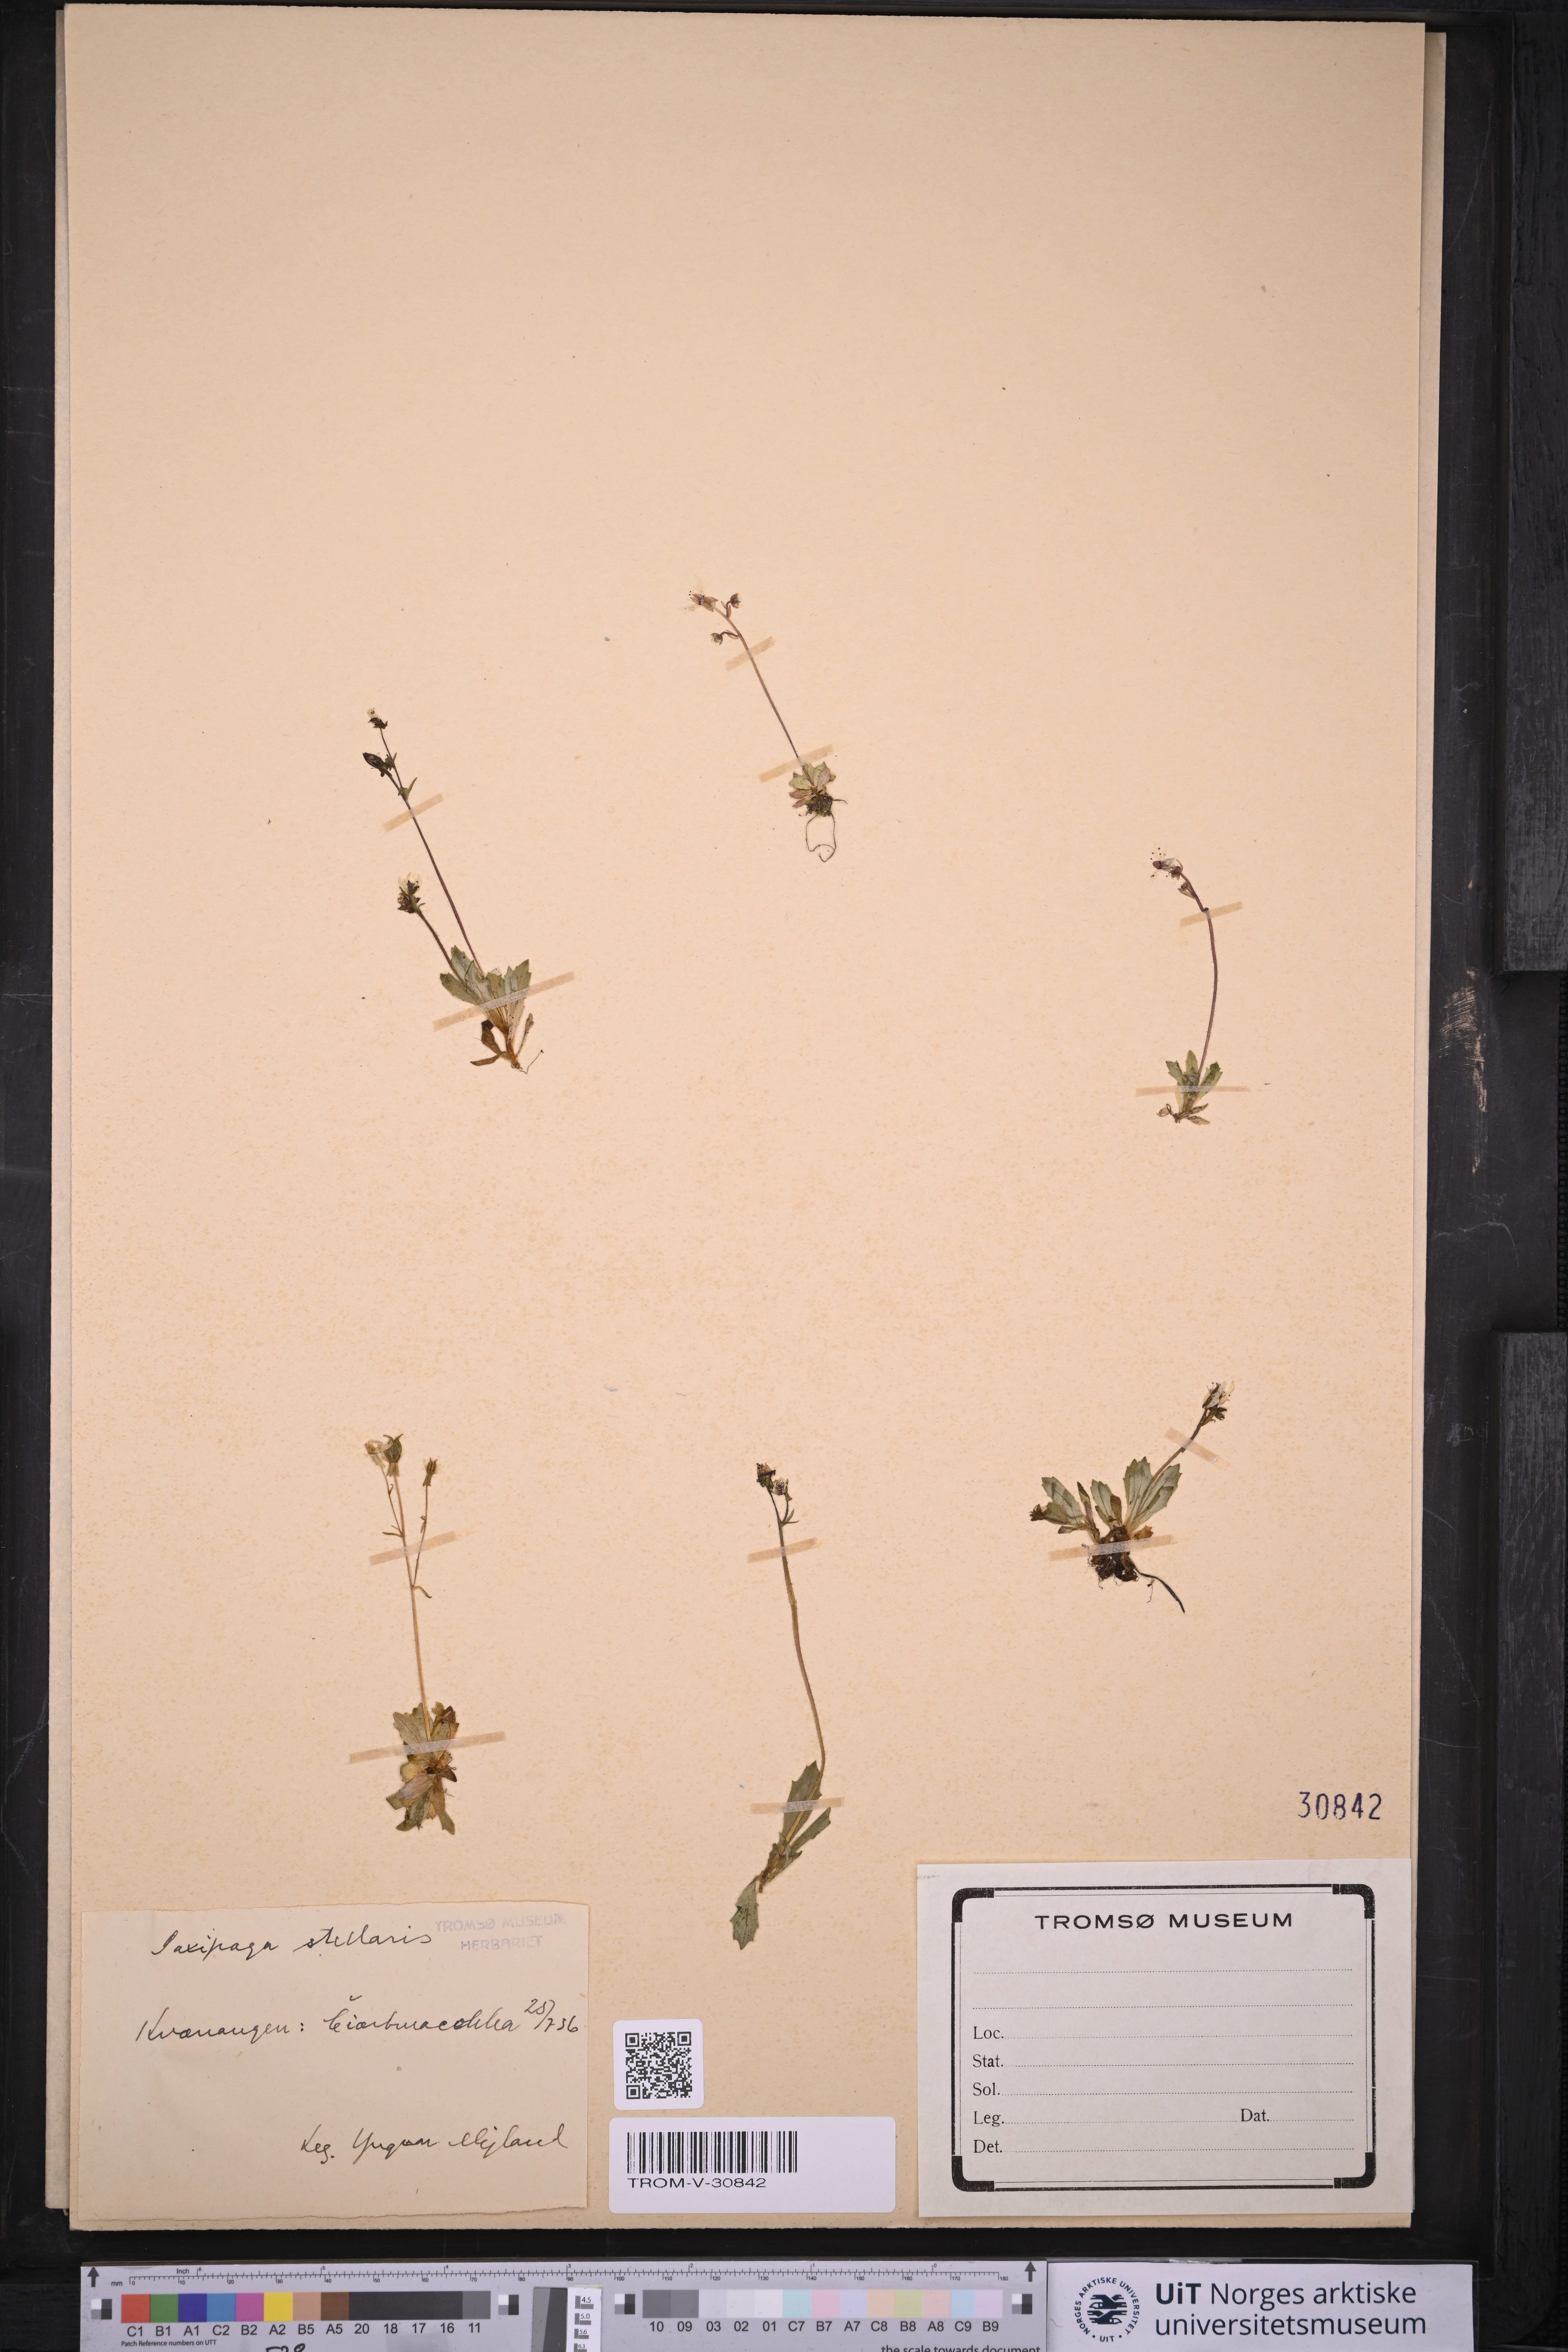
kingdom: Plantae
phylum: Tracheophyta
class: Magnoliopsida
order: Saxifragales
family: Saxifragaceae
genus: Micranthes
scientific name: Micranthes stellaris
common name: Starry saxifrage
